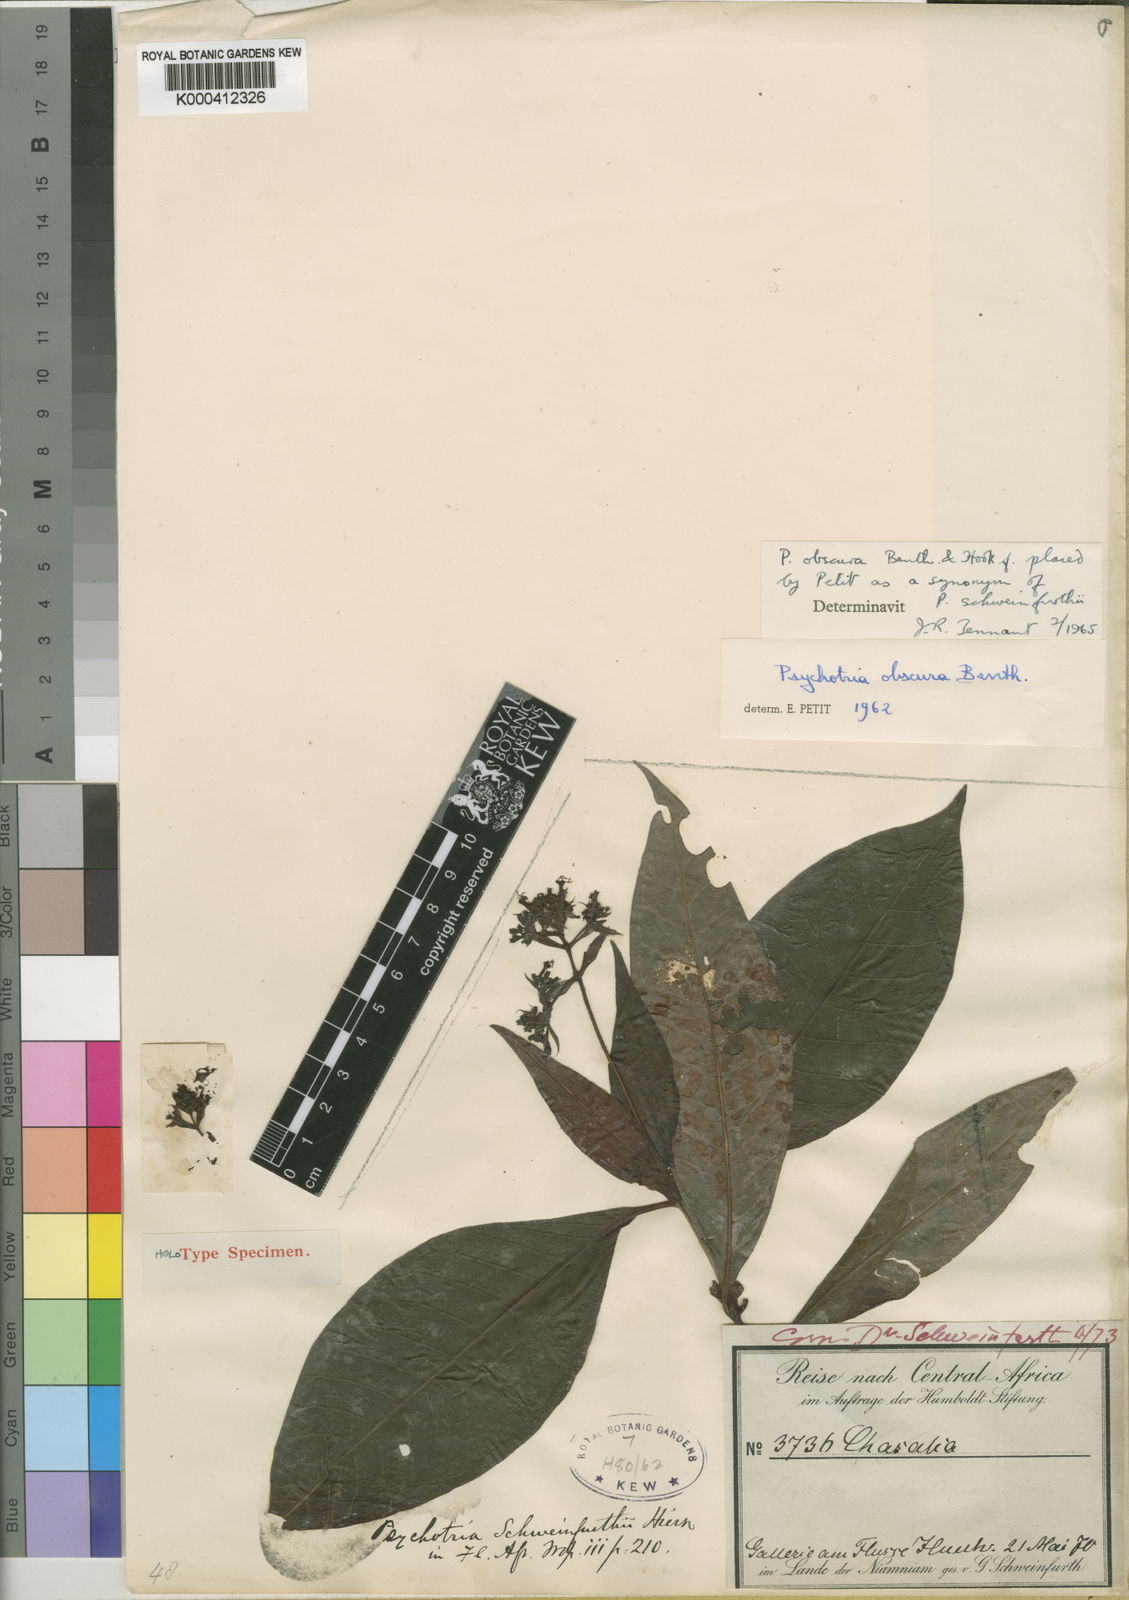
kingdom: Plantae
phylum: Tracheophyta
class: Magnoliopsida
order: Gentianales
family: Rubiaceae
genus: Psychotria
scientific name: Psychotria schweinfurthii
